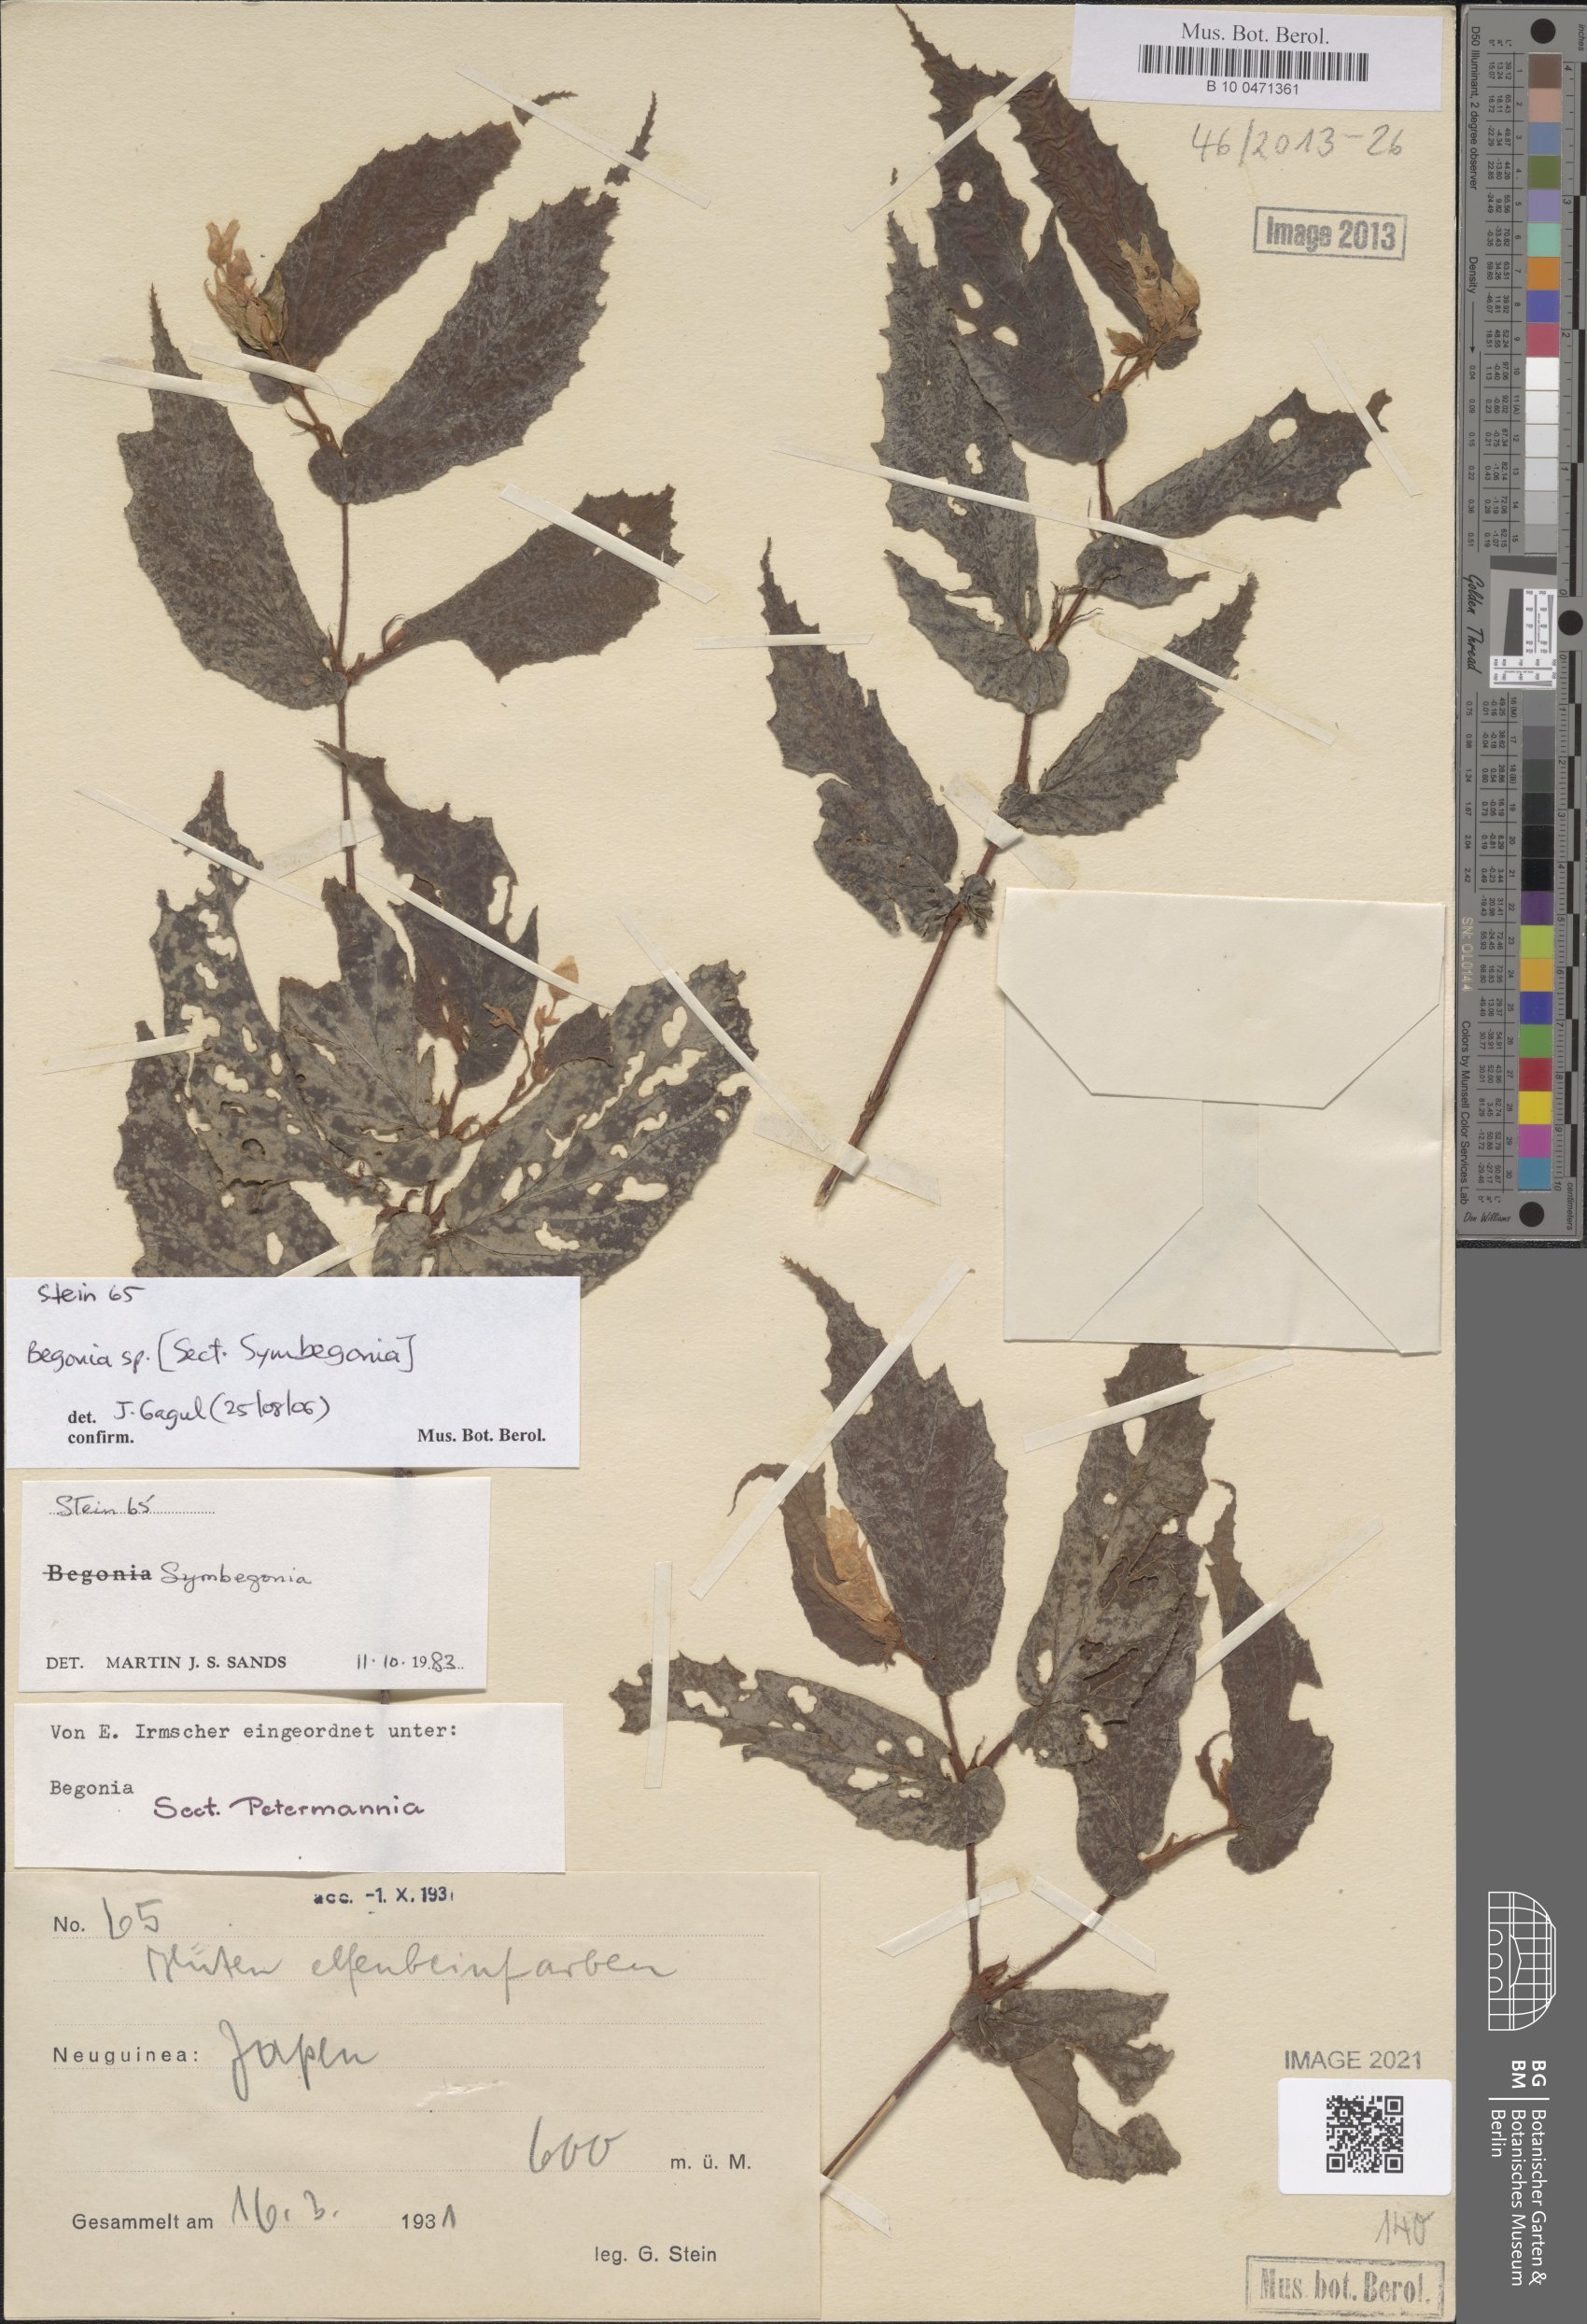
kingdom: Plantae
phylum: Tracheophyta
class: Magnoliopsida
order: Cucurbitales
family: Begoniaceae
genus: Begonia
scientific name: Begonia
